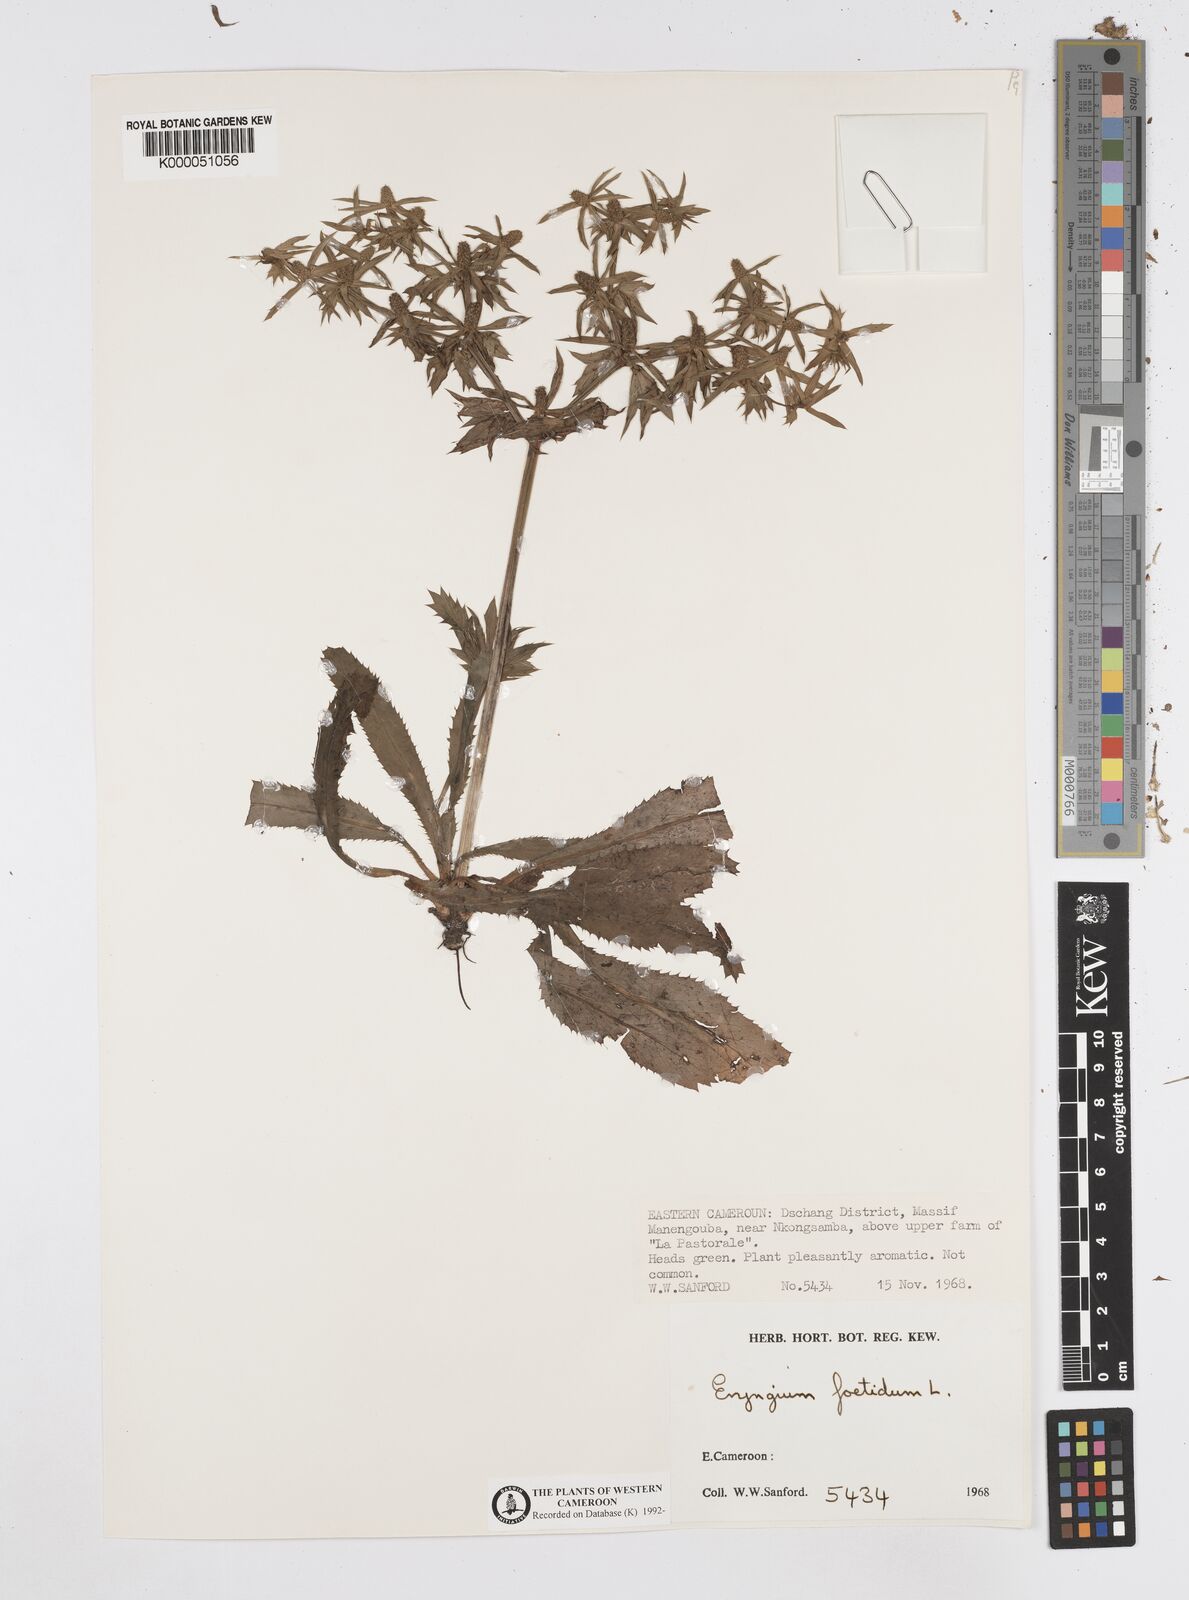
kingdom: Plantae
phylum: Tracheophyta
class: Magnoliopsida
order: Apiales
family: Apiaceae
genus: Eryngium
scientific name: Eryngium foetidum
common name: Fitweed
